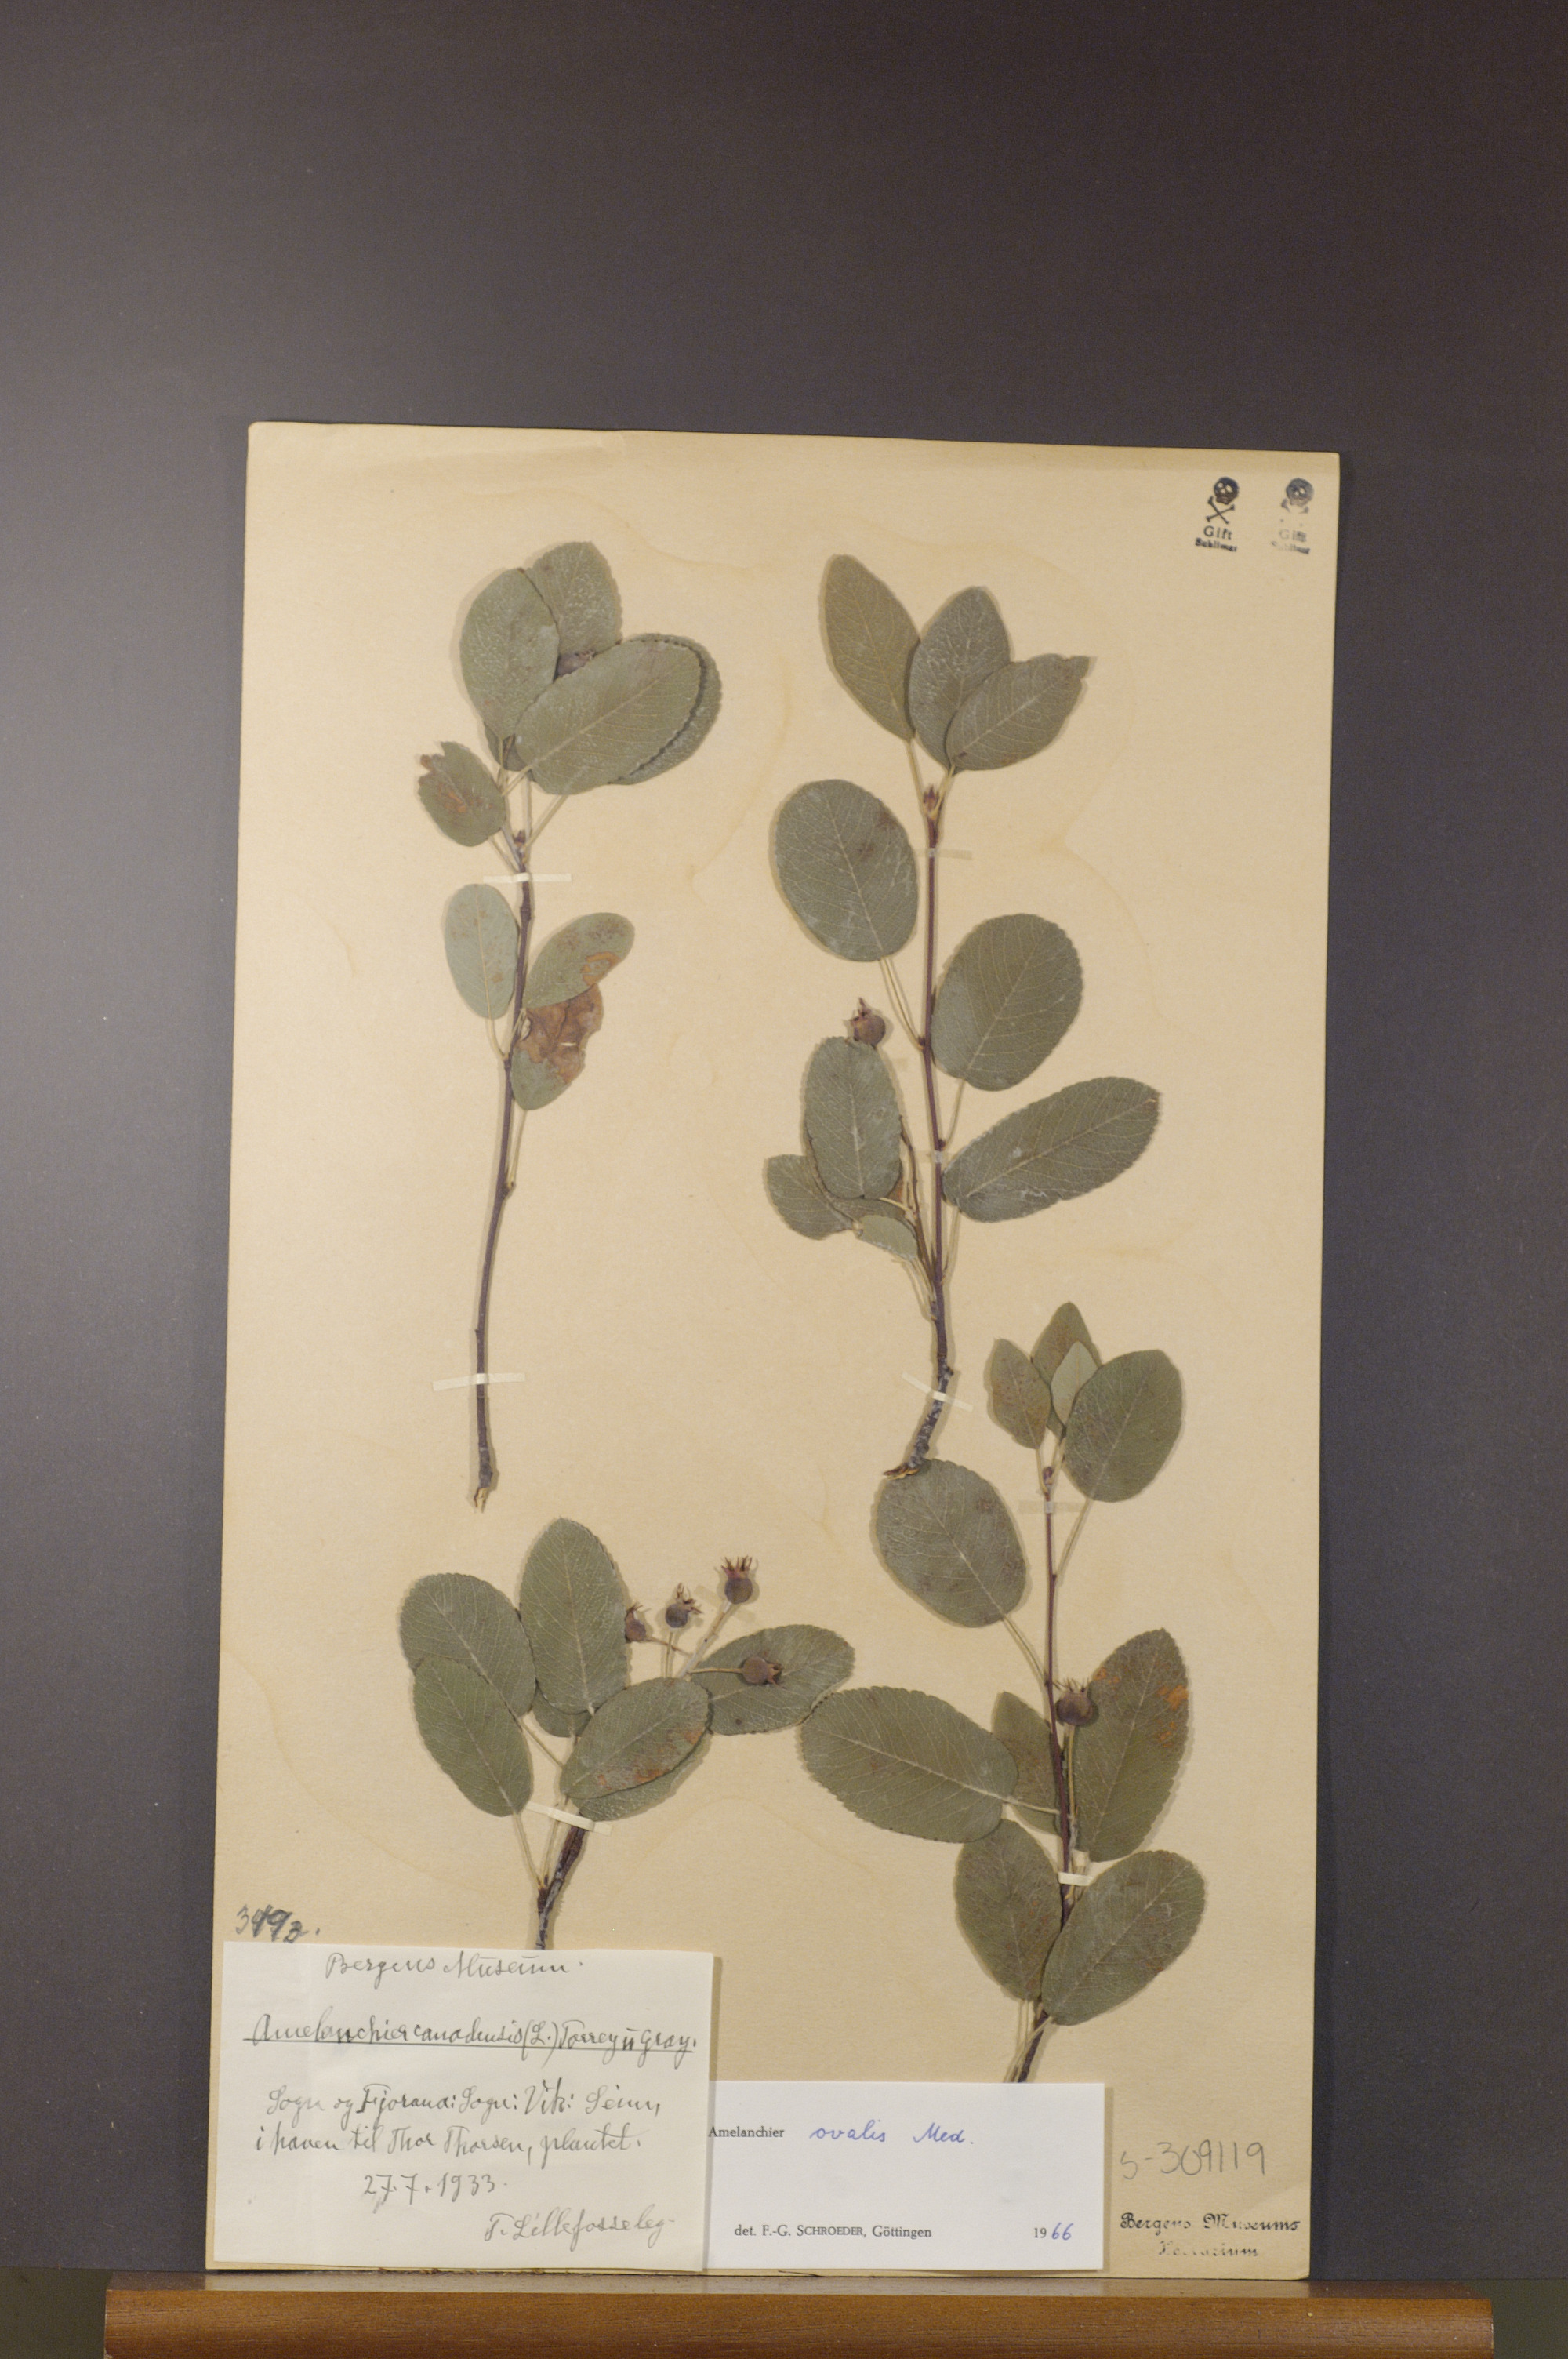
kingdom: Plantae
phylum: Tracheophyta
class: Magnoliopsida
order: Rosales
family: Rosaceae
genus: Amelanchier
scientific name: Amelanchier ovalis
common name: Serviceberry
